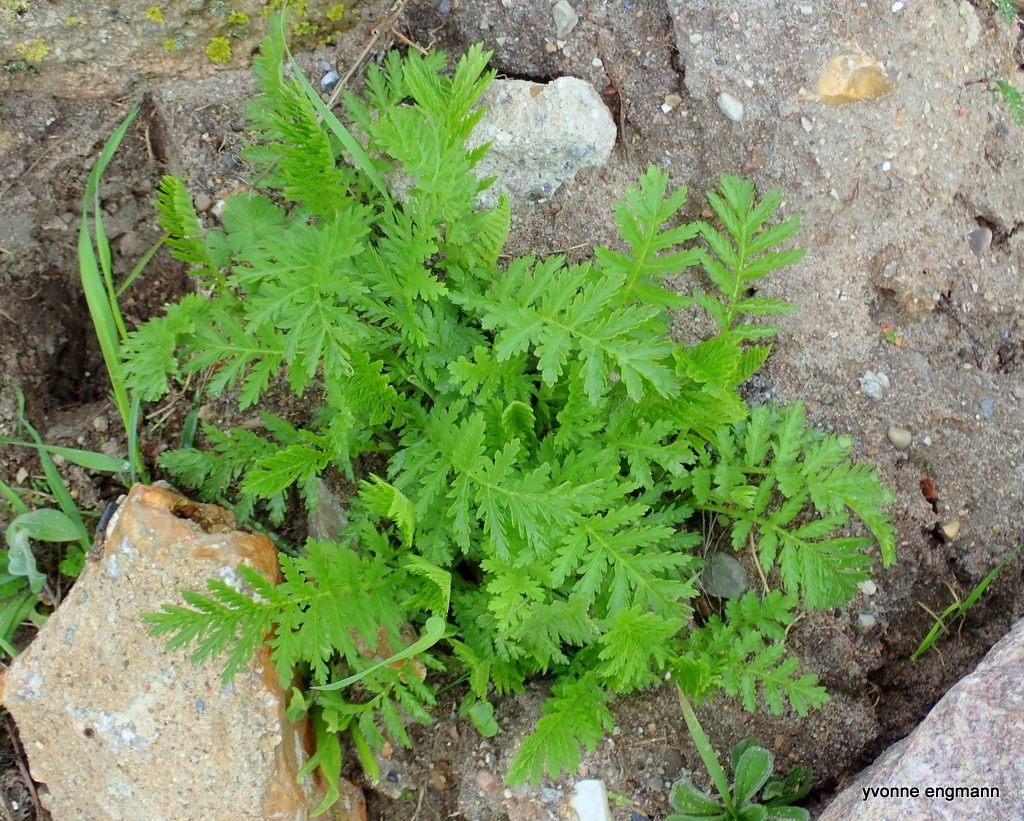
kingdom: Plantae
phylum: Tracheophyta
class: Magnoliopsida
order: Asterales
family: Asteraceae
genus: Tanacetum
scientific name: Tanacetum vulgare
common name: Rejnfan
